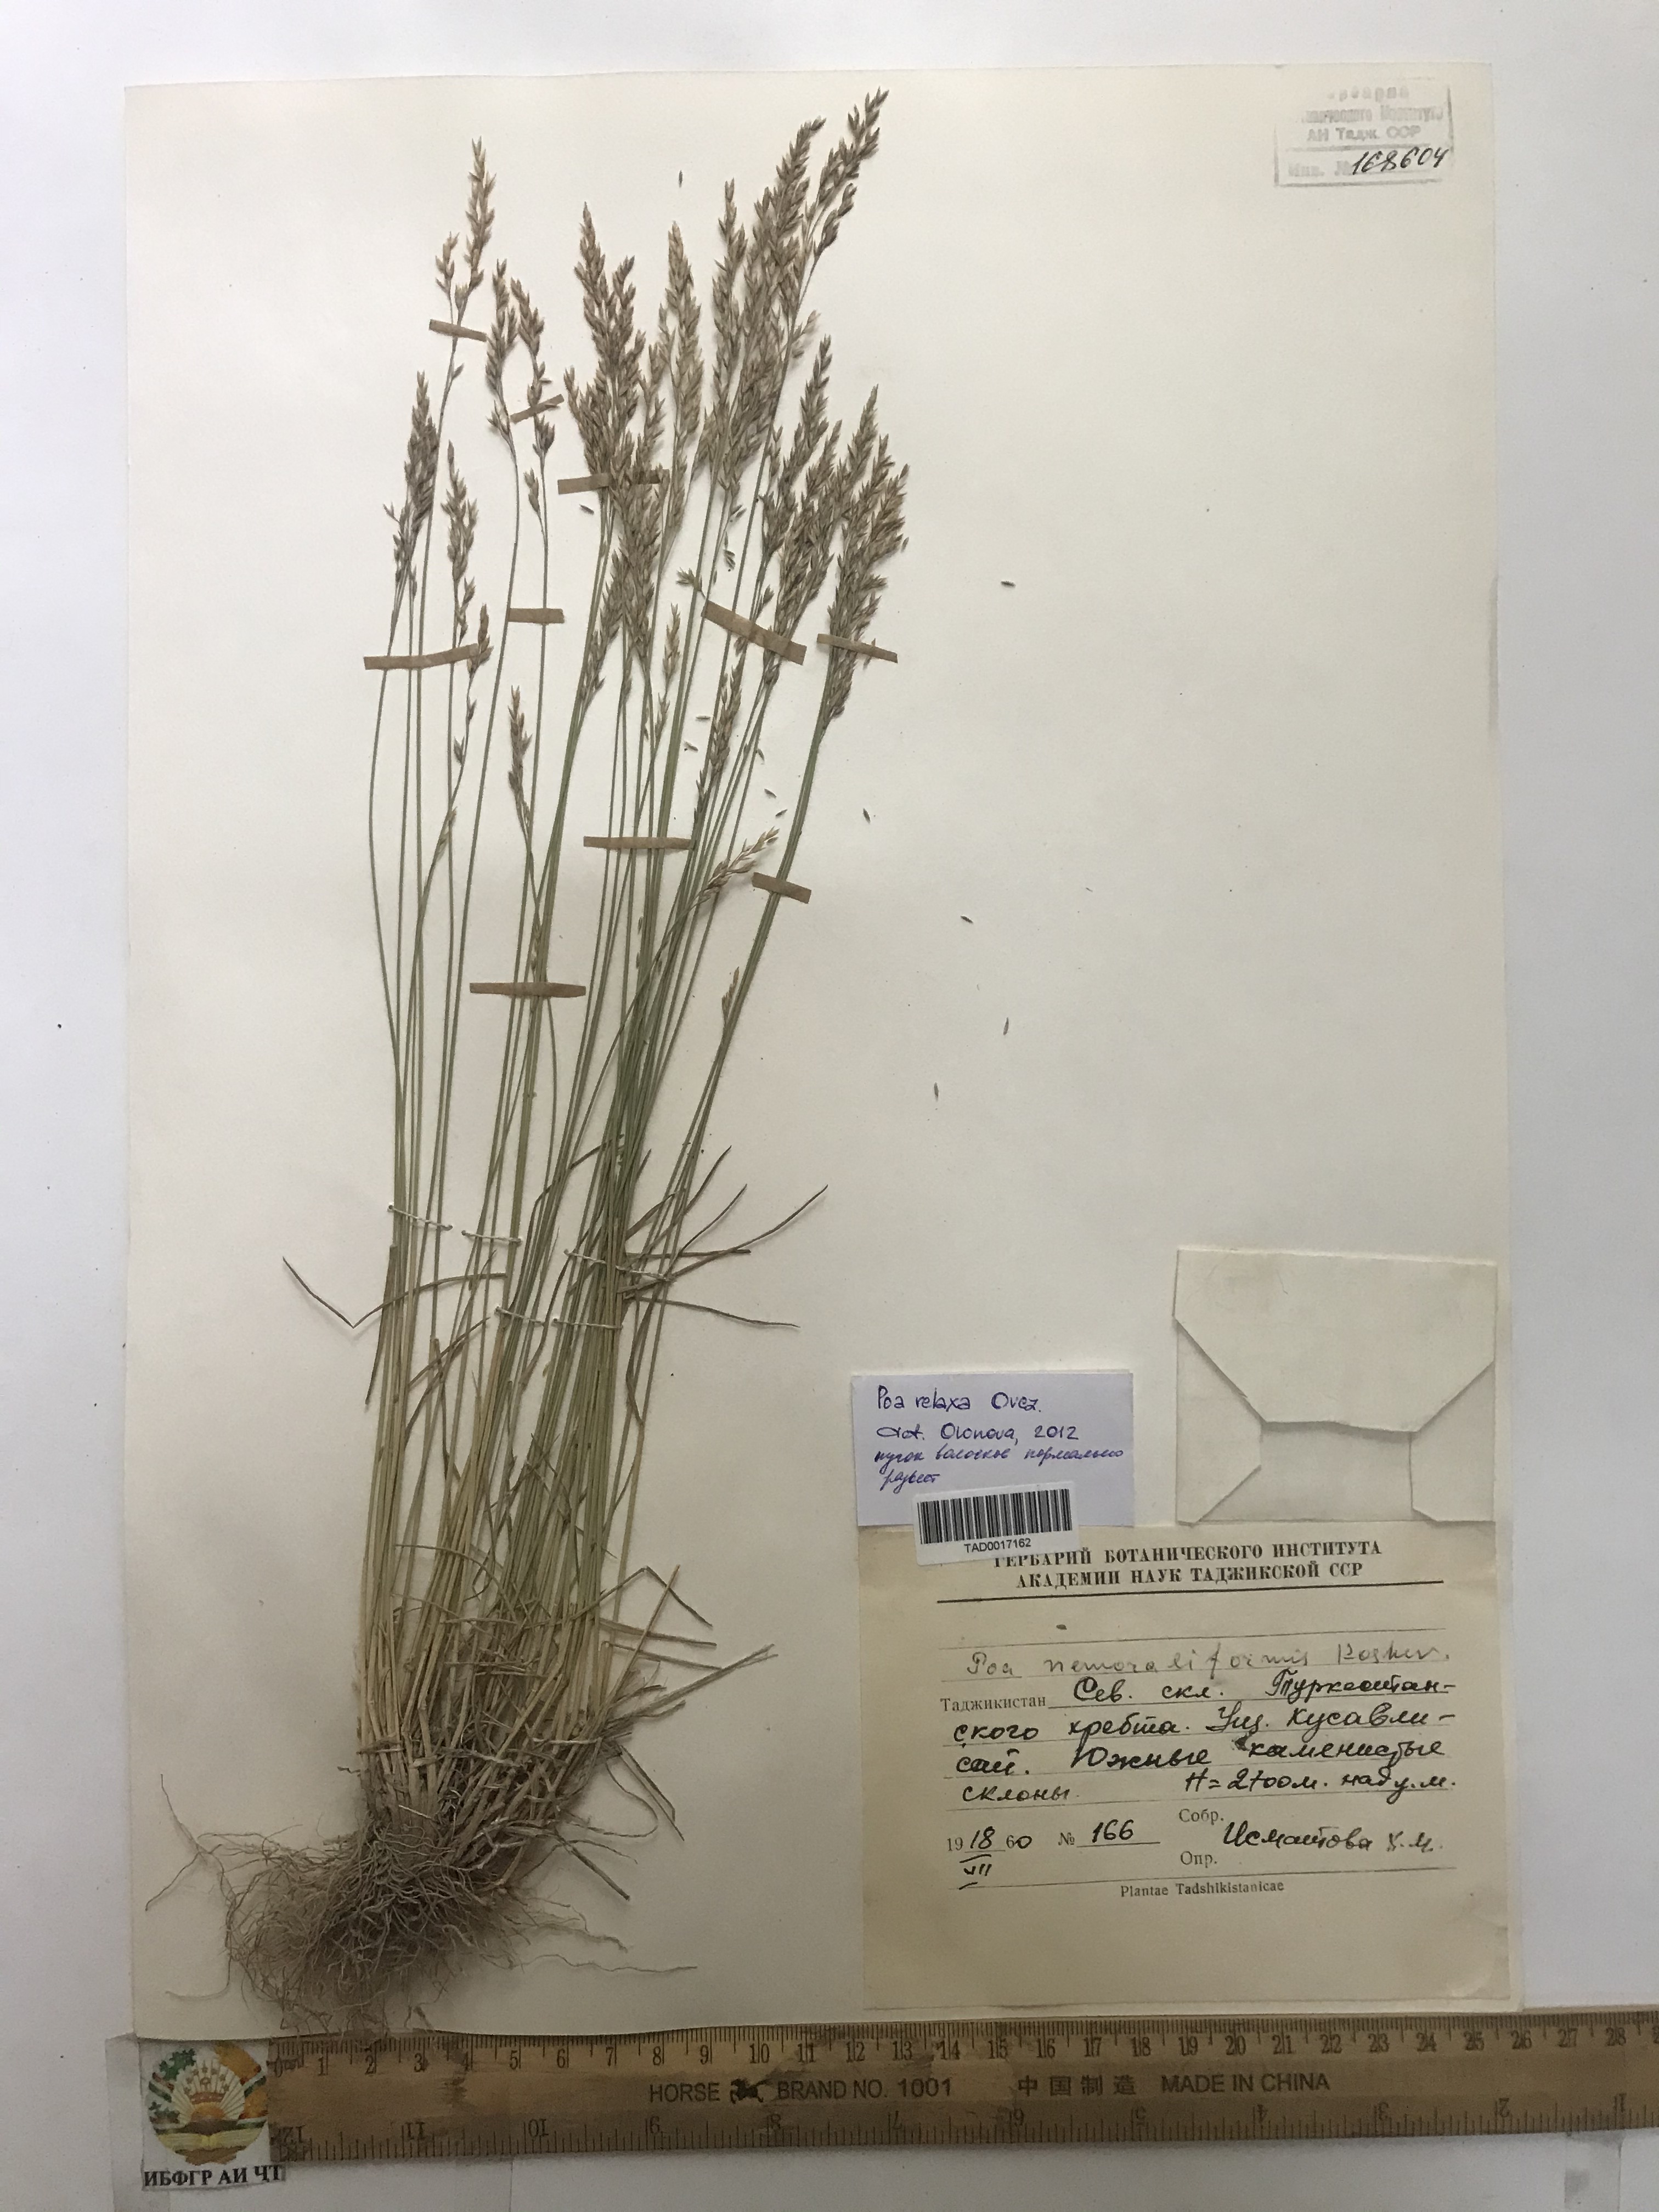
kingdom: Plantae
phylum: Tracheophyta
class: Liliopsida
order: Poales
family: Poaceae
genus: Poa
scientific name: Poa urssulensis
